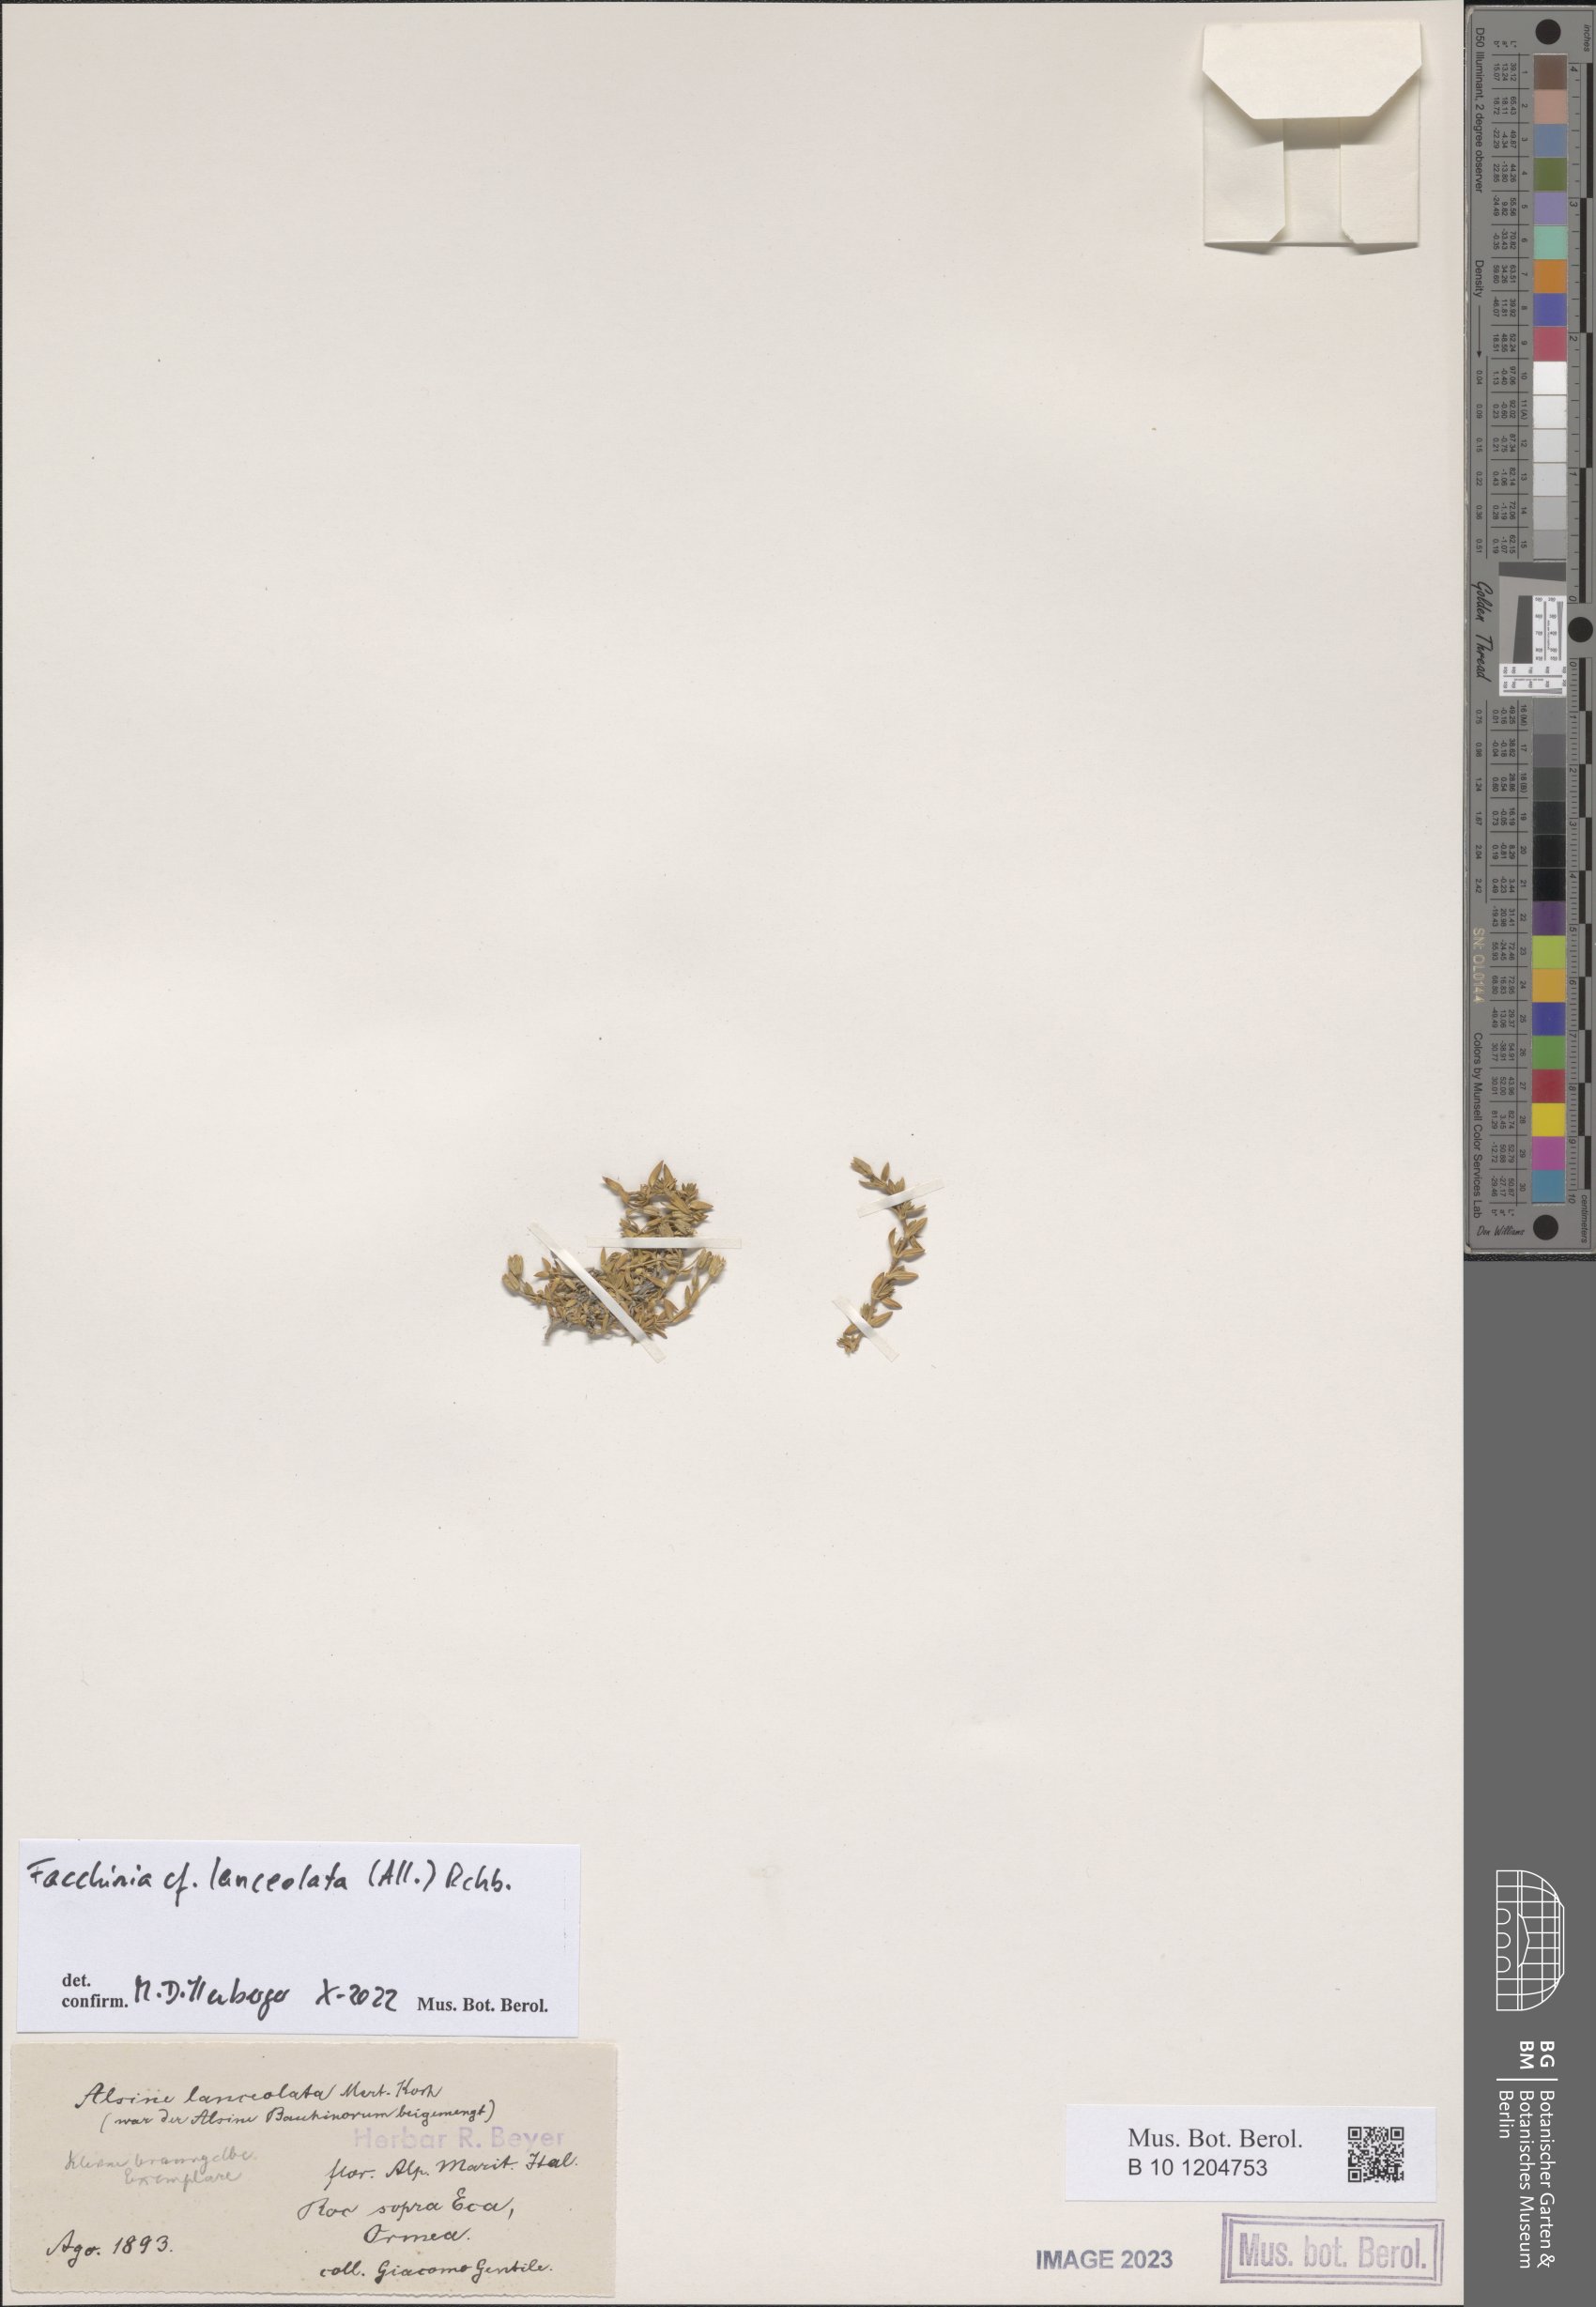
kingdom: Plantae
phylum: Tracheophyta
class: Magnoliopsida
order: Caryophyllales
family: Caryophyllaceae
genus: Facchinia
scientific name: Facchinia lanceolata
